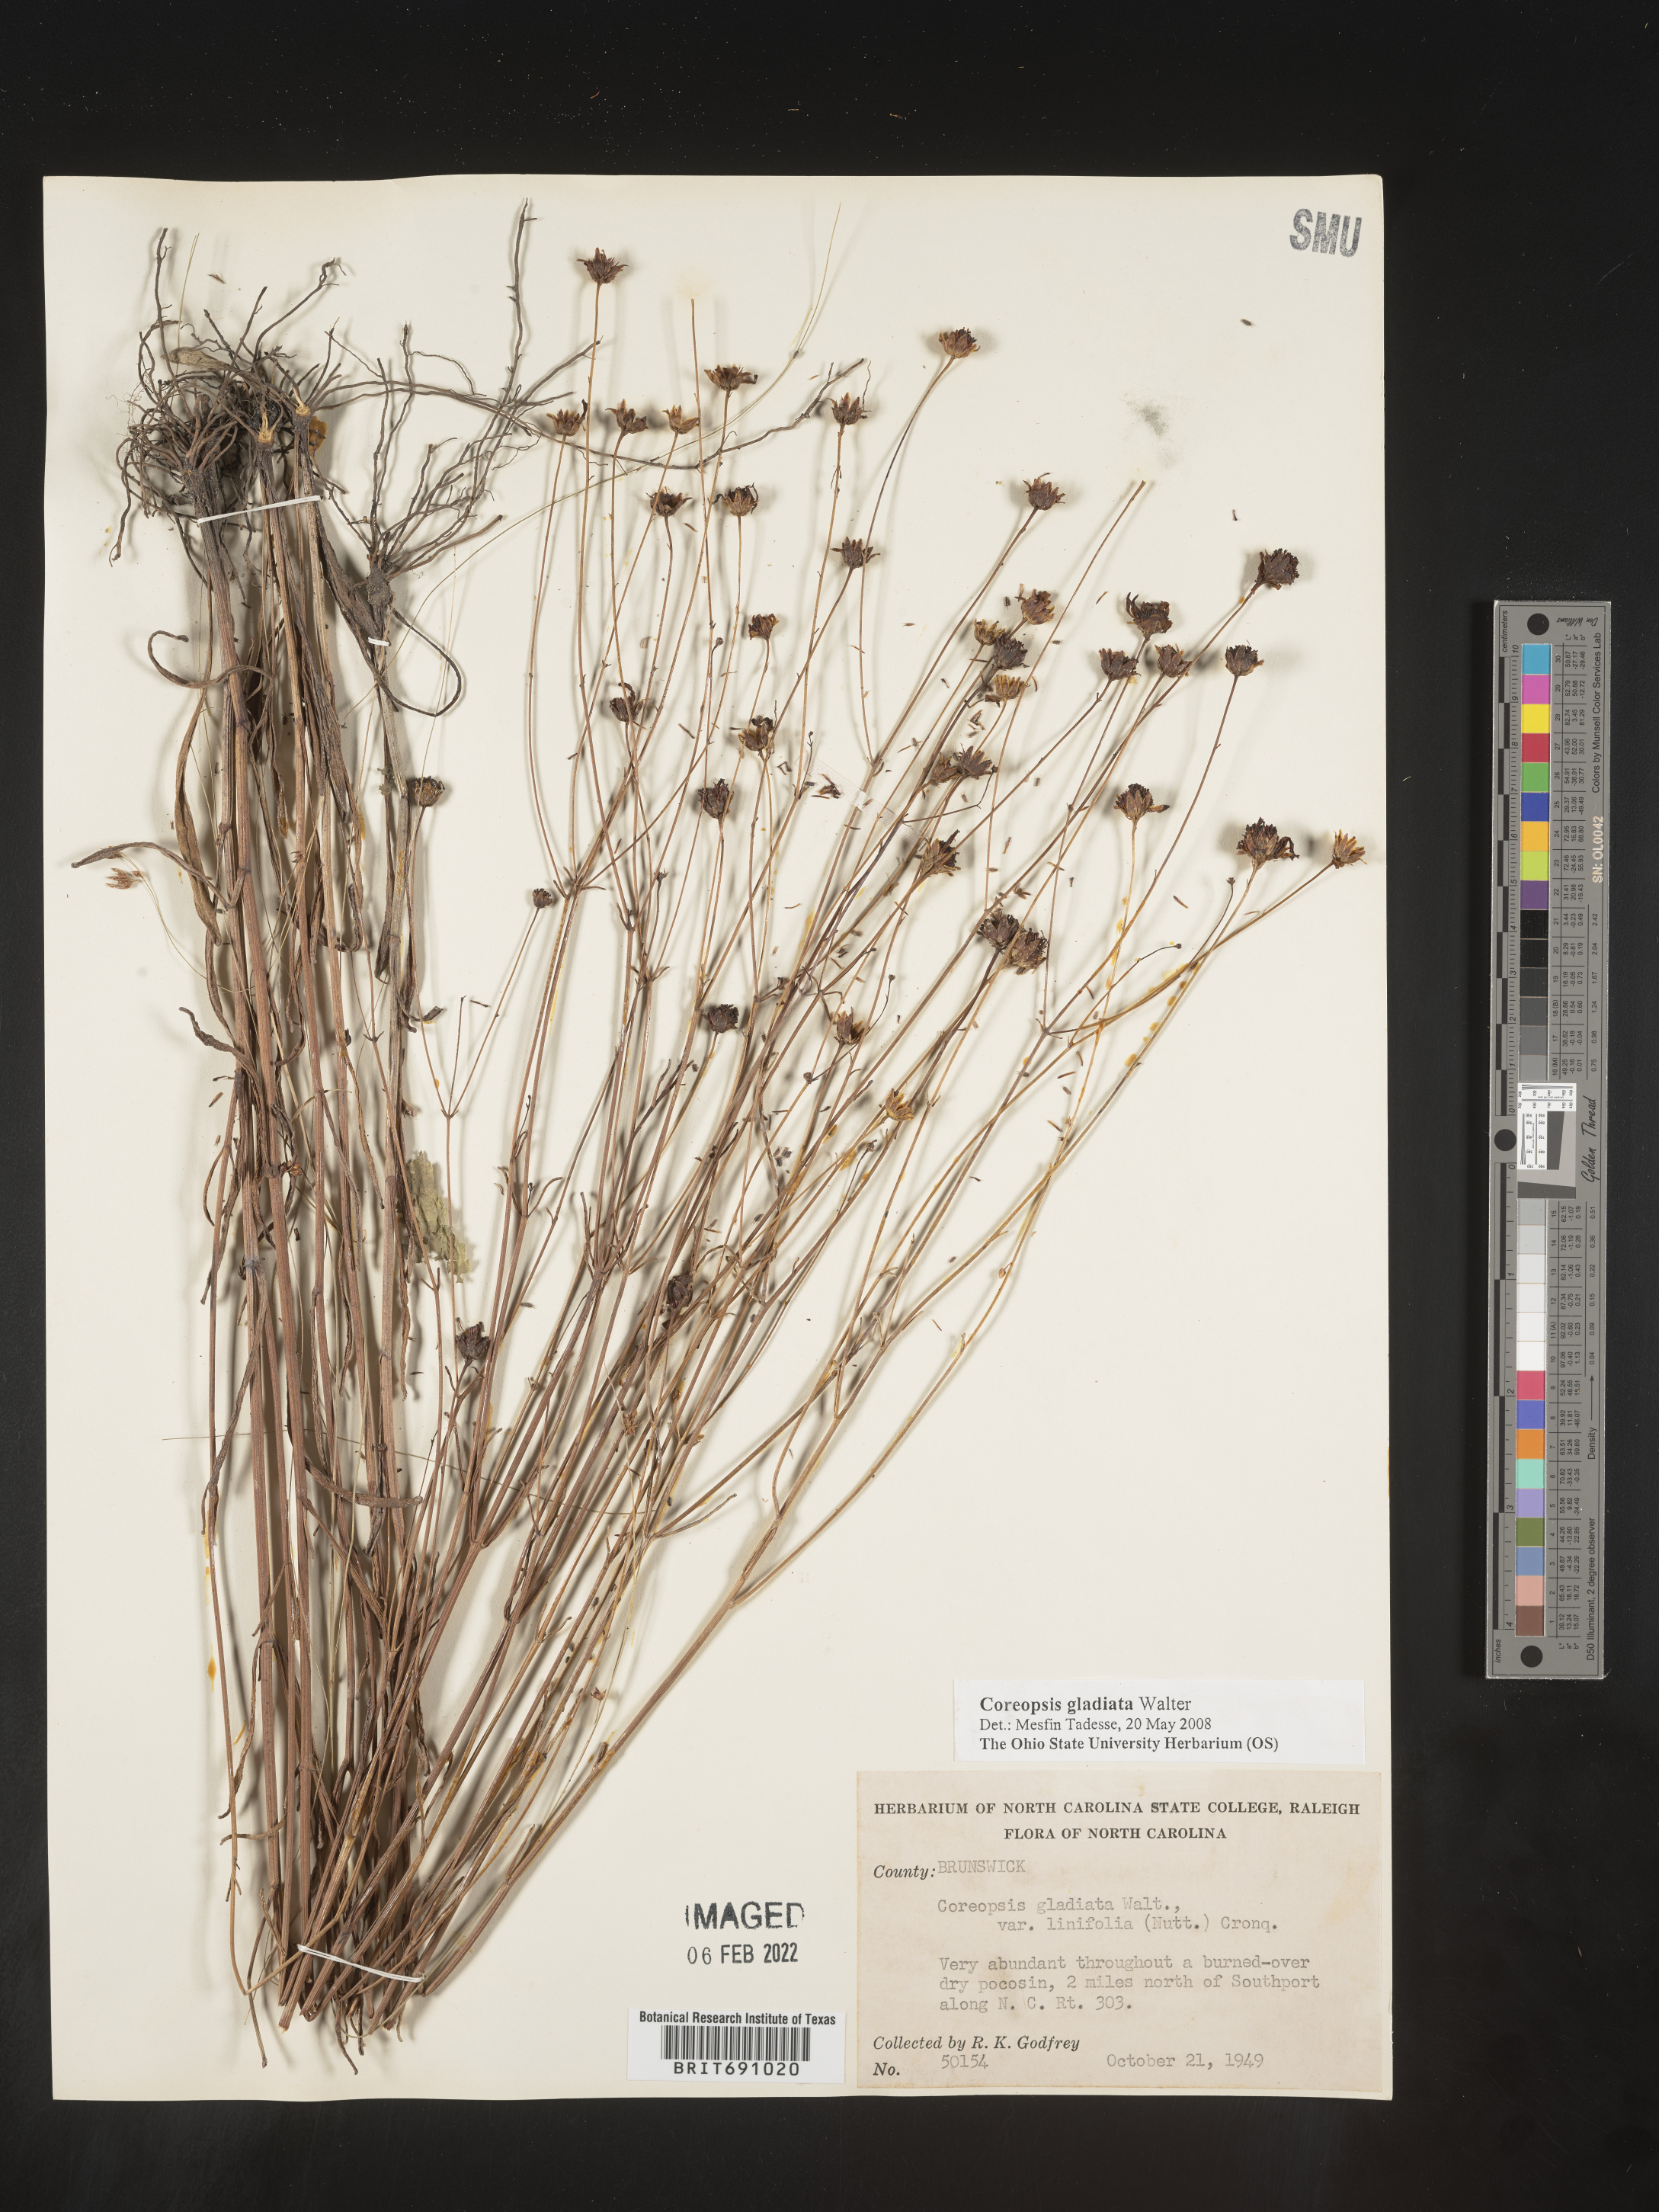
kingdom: Plantae
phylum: Tracheophyta
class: Magnoliopsida
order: Asterales
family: Asteraceae
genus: Coreopsis
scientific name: Coreopsis gladiata
